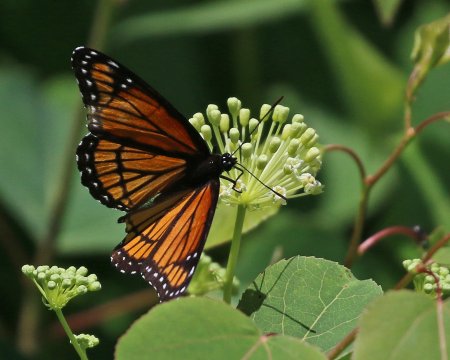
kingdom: Animalia
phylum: Arthropoda
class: Insecta
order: Lepidoptera
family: Nymphalidae
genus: Limenitis
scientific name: Limenitis archippus
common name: Viceroy
